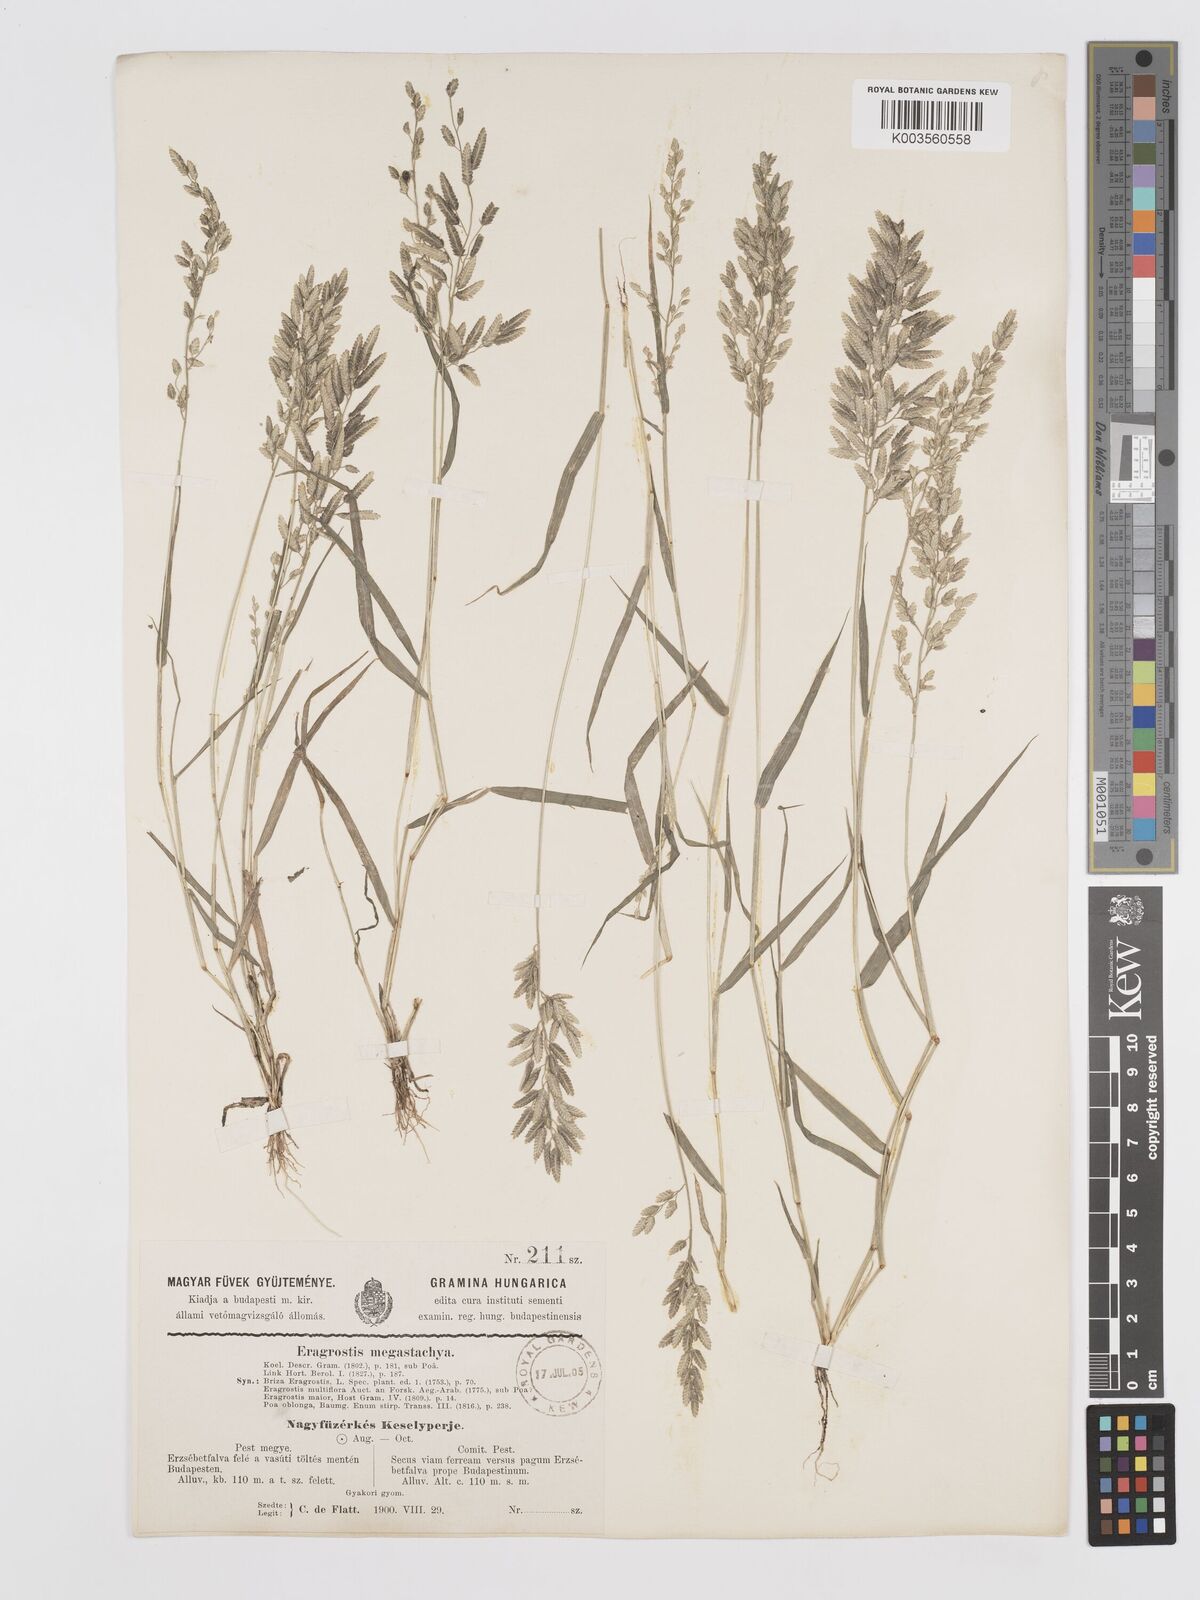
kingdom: Plantae
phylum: Tracheophyta
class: Liliopsida
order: Poales
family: Poaceae
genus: Eragrostis
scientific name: Eragrostis cilianensis
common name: Stinkgrass
